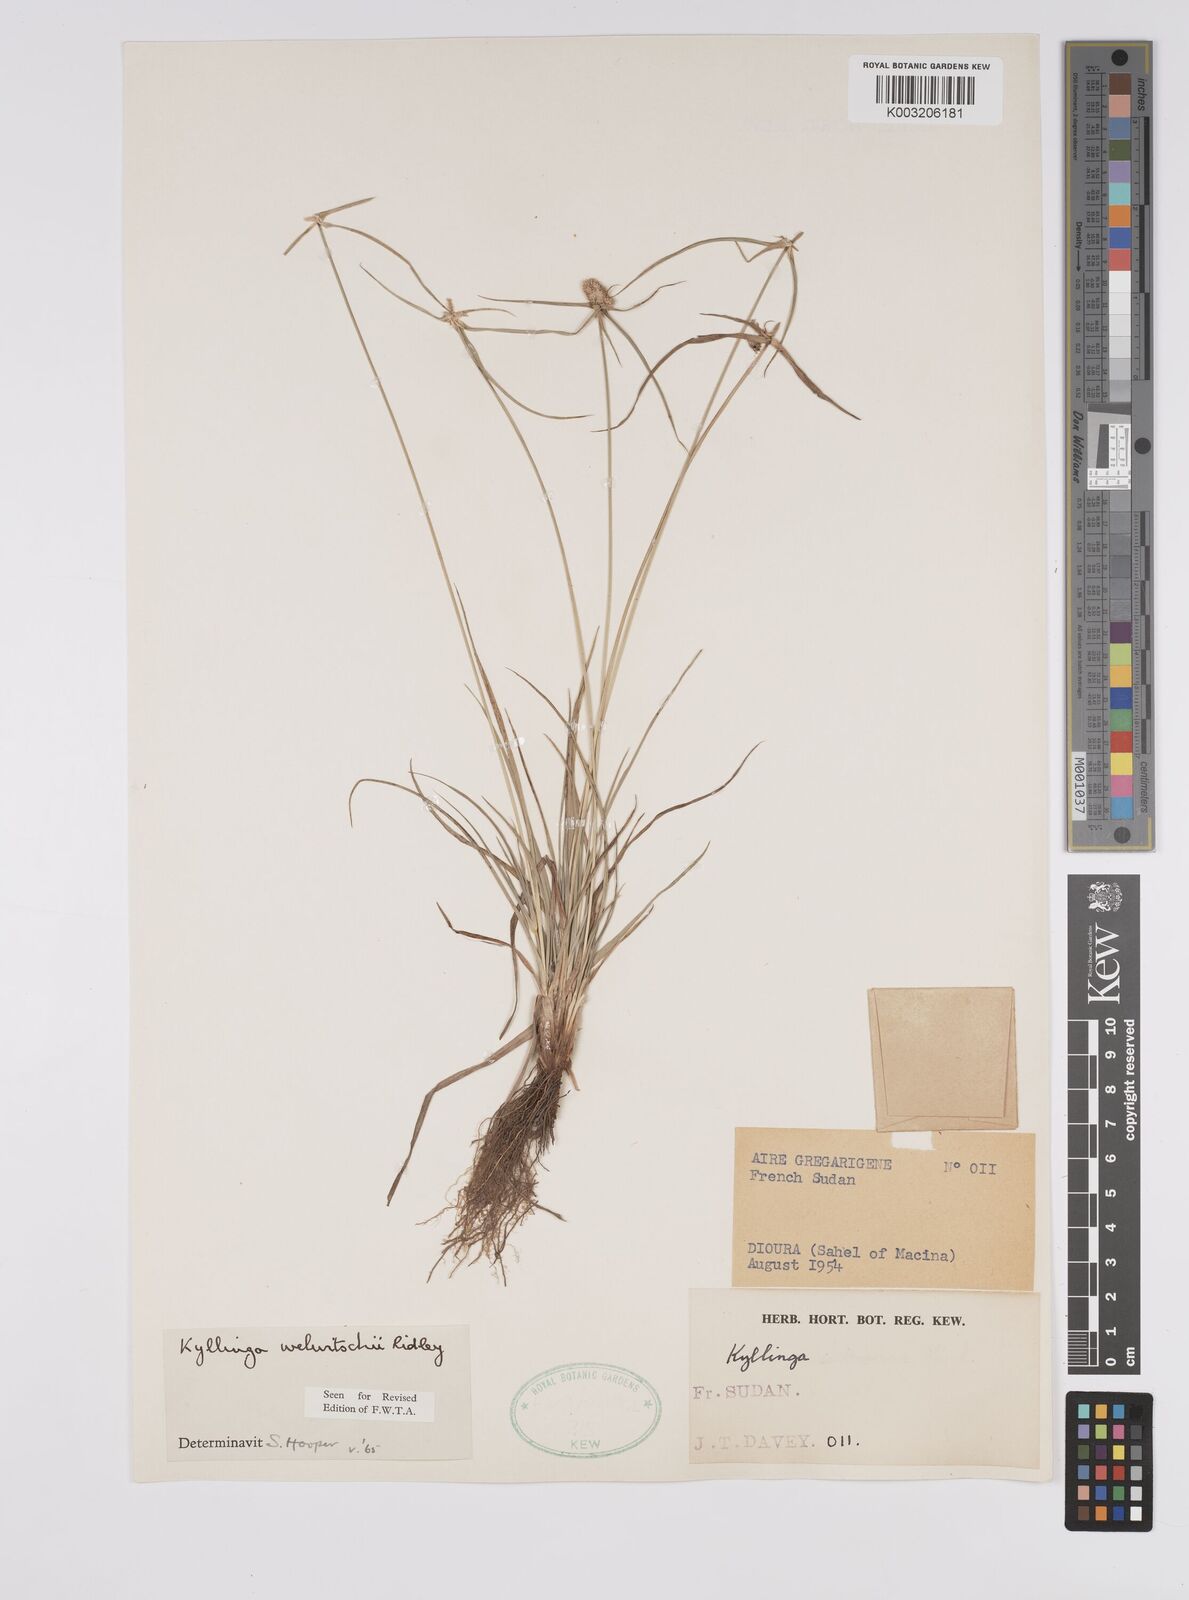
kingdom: Plantae
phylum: Tracheophyta
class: Liliopsida
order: Poales
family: Cyperaceae
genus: Cyperus
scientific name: Cyperus
